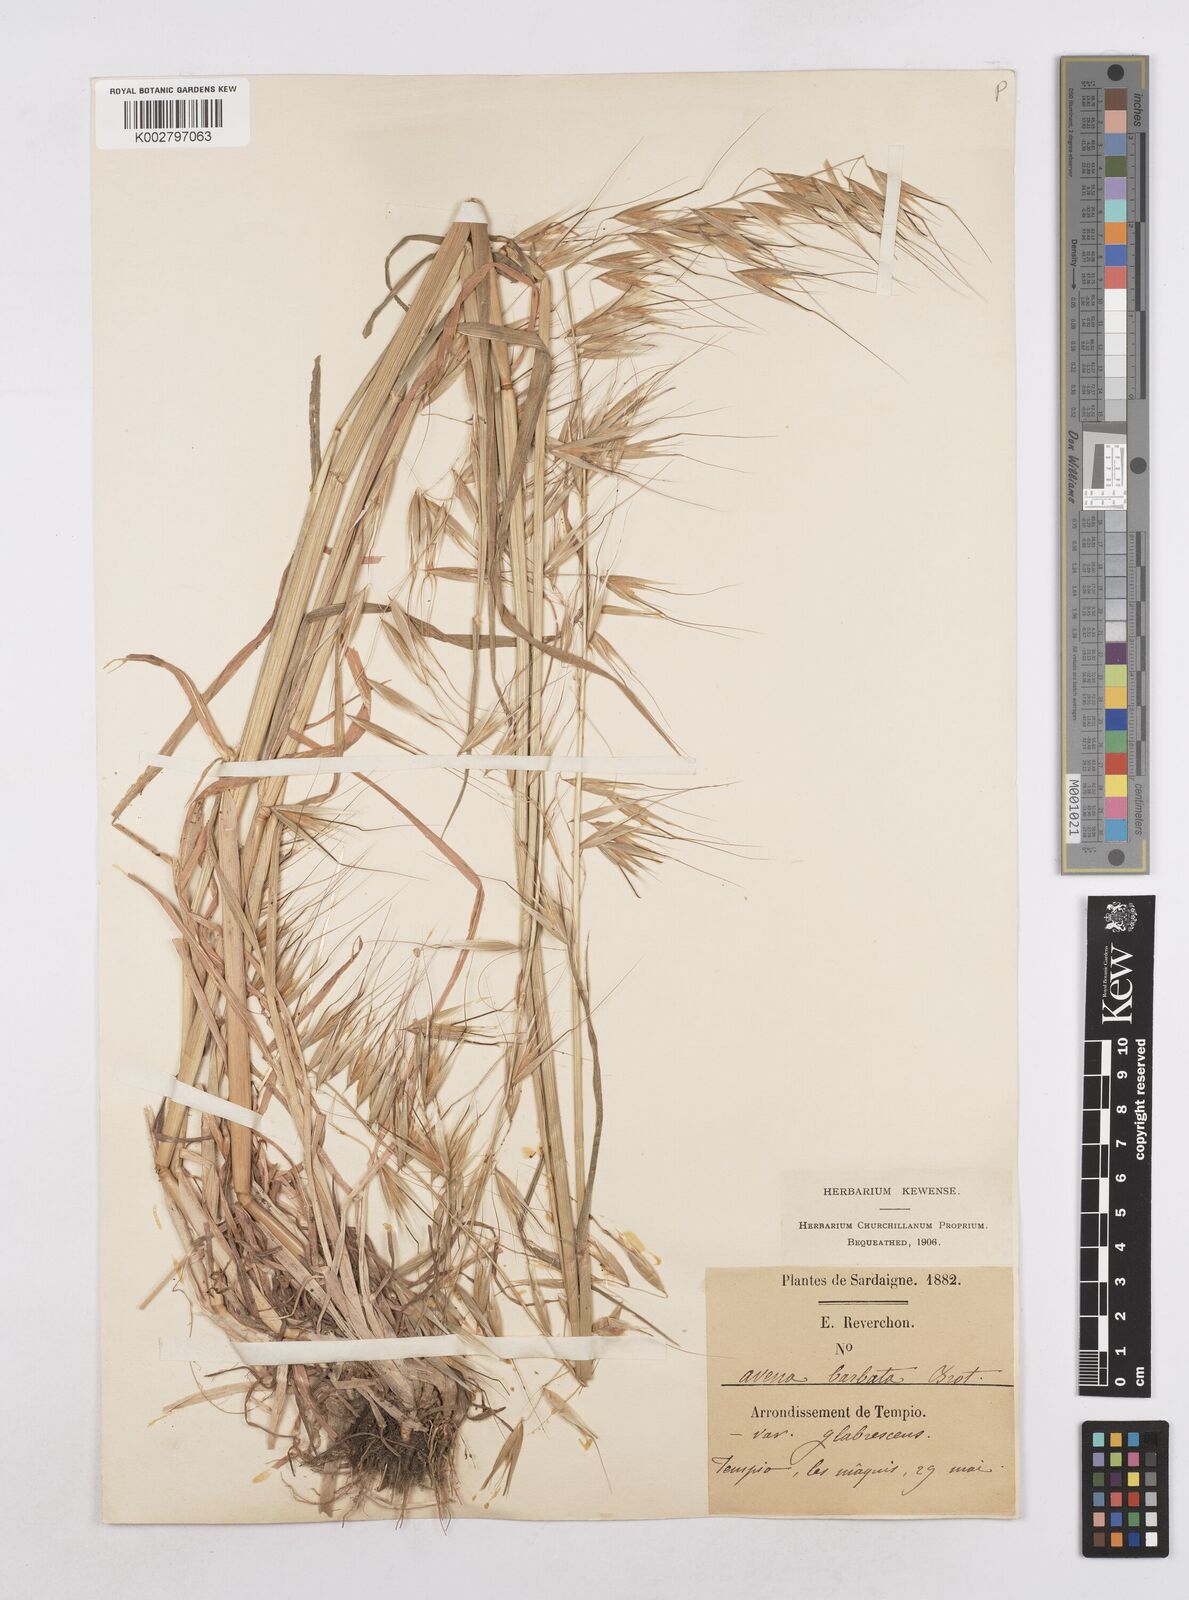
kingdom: Plantae
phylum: Tracheophyta
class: Liliopsida
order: Poales
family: Poaceae
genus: Avena
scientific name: Avena
